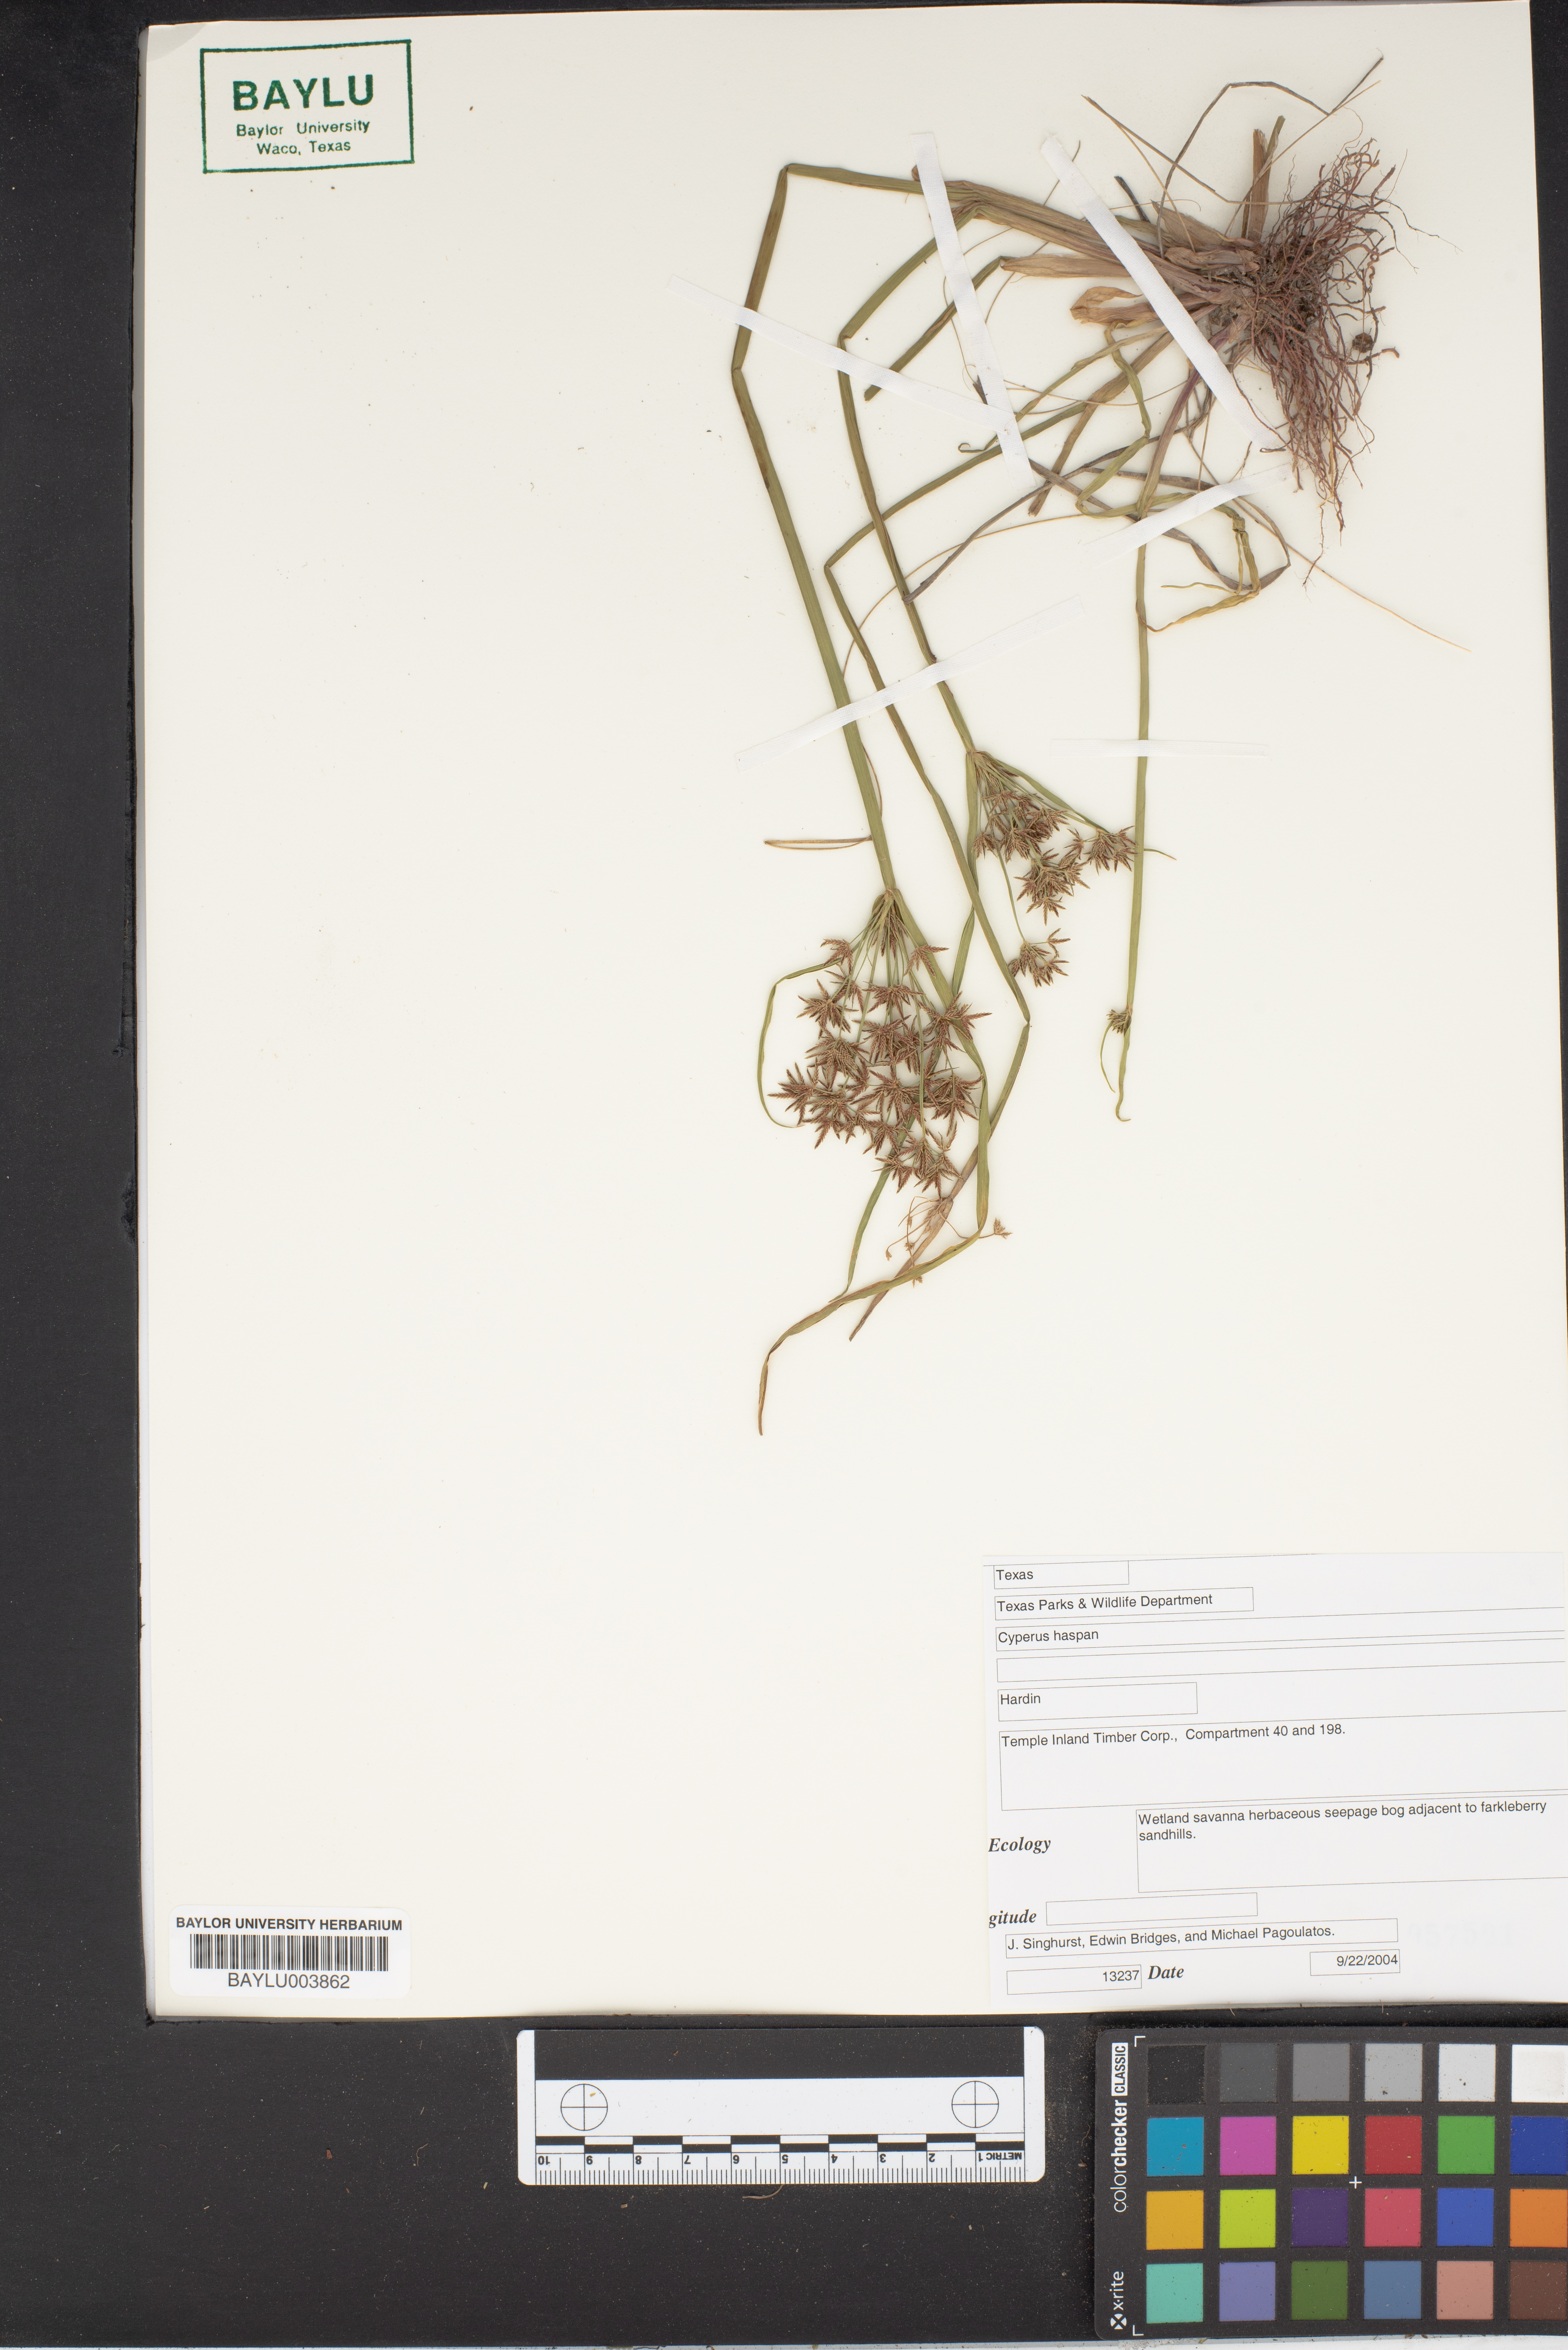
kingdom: Plantae
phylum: Tracheophyta
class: Liliopsida
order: Poales
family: Cyperaceae
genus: Cyperus
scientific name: Cyperus haspan
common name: Haspan flatsedge
